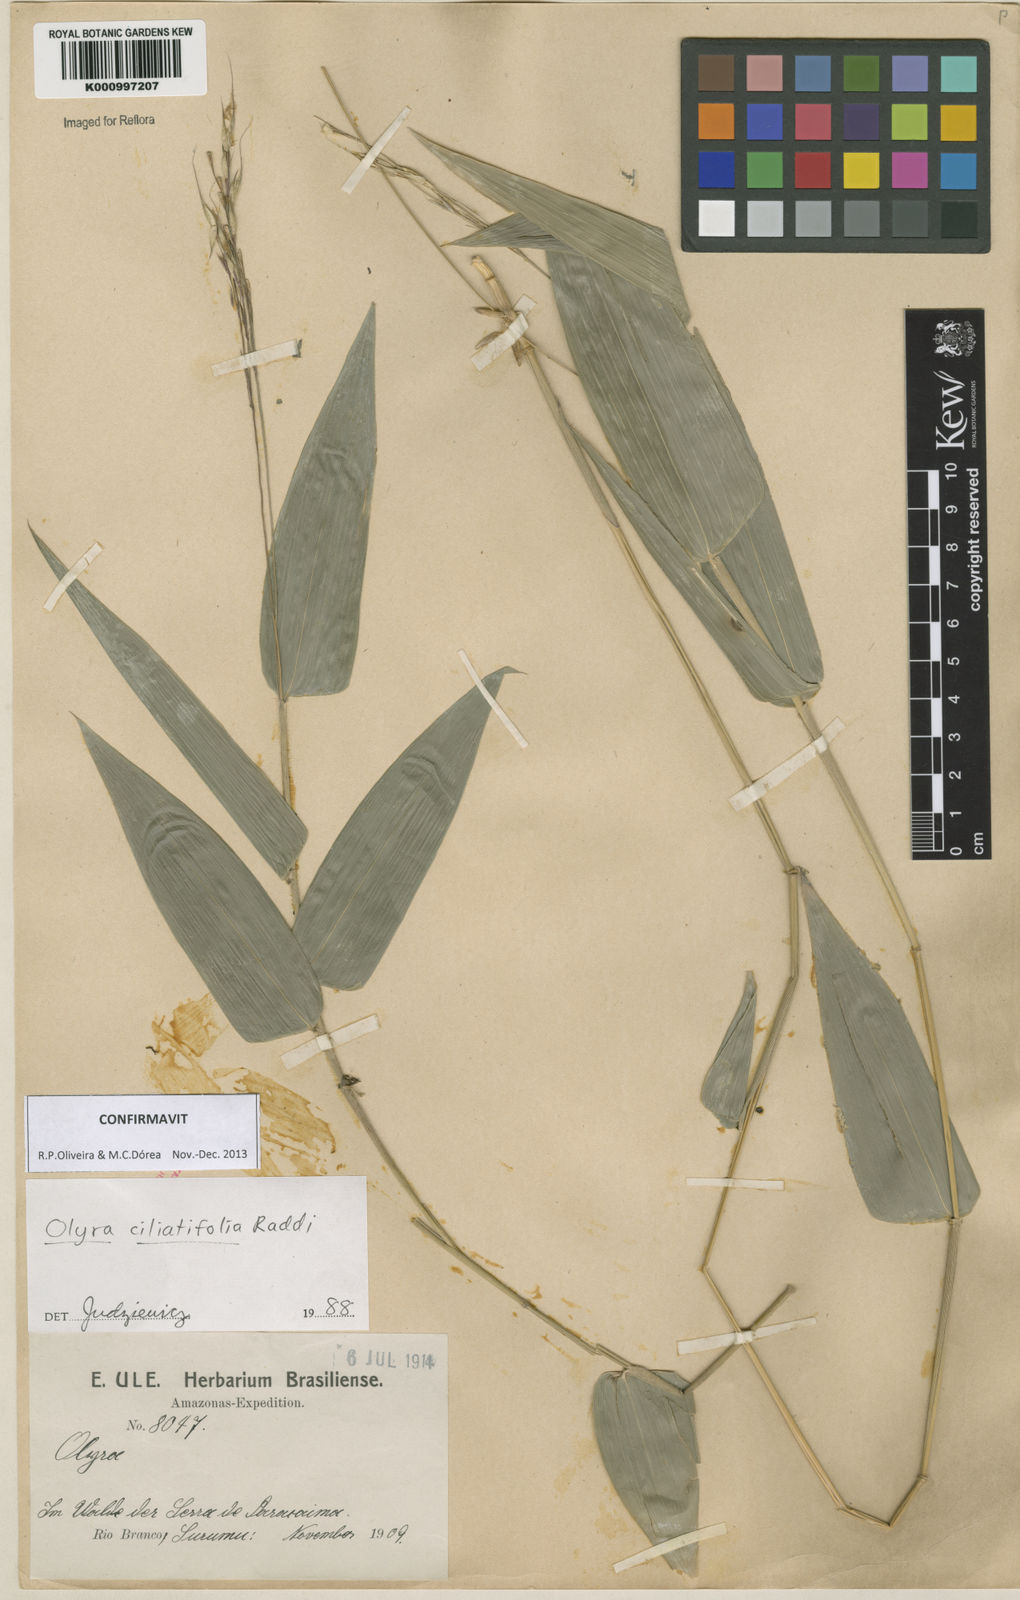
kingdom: Plantae
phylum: Tracheophyta
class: Liliopsida
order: Poales
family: Poaceae
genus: Olyra
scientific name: Olyra ciliatifolia
